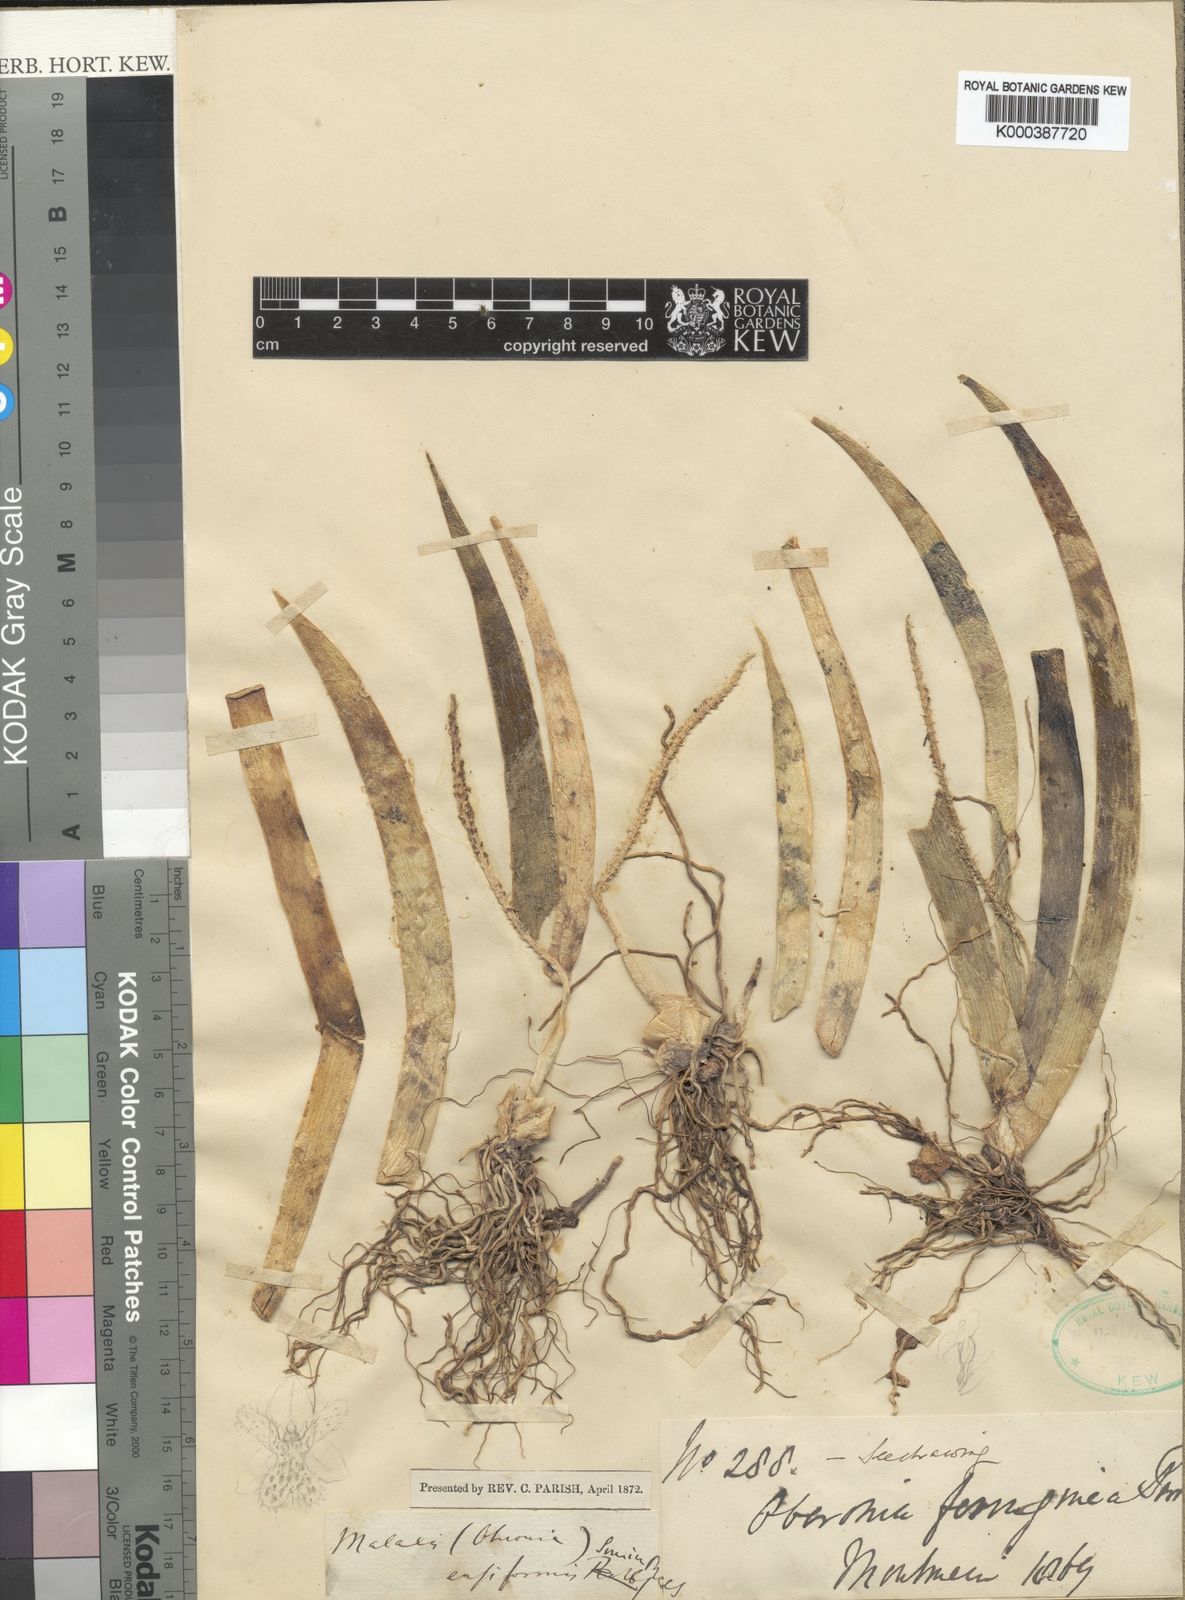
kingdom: Plantae
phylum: Tracheophyta
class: Liliopsida
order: Asparagales
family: Orchidaceae
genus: Oberonia
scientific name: Oberonia ferruginea
